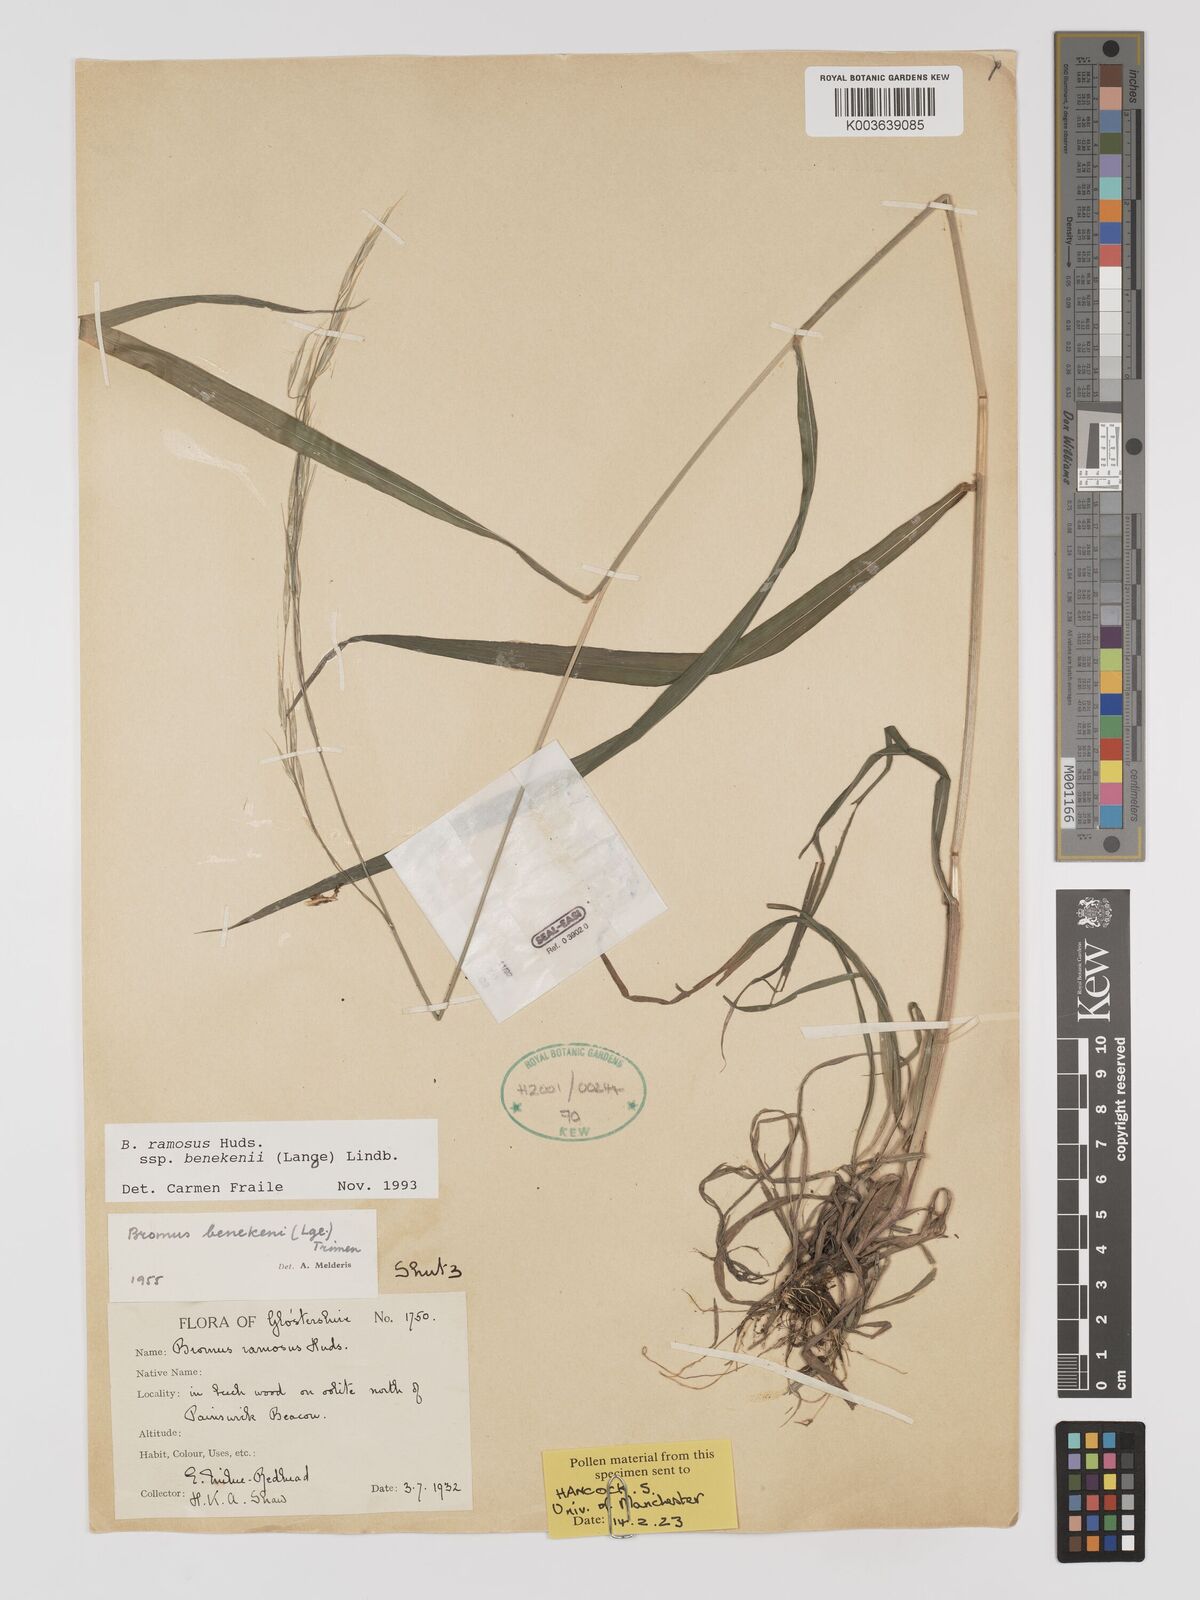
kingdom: Plantae
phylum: Tracheophyta
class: Liliopsida
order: Poales
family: Poaceae
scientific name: Poaceae
